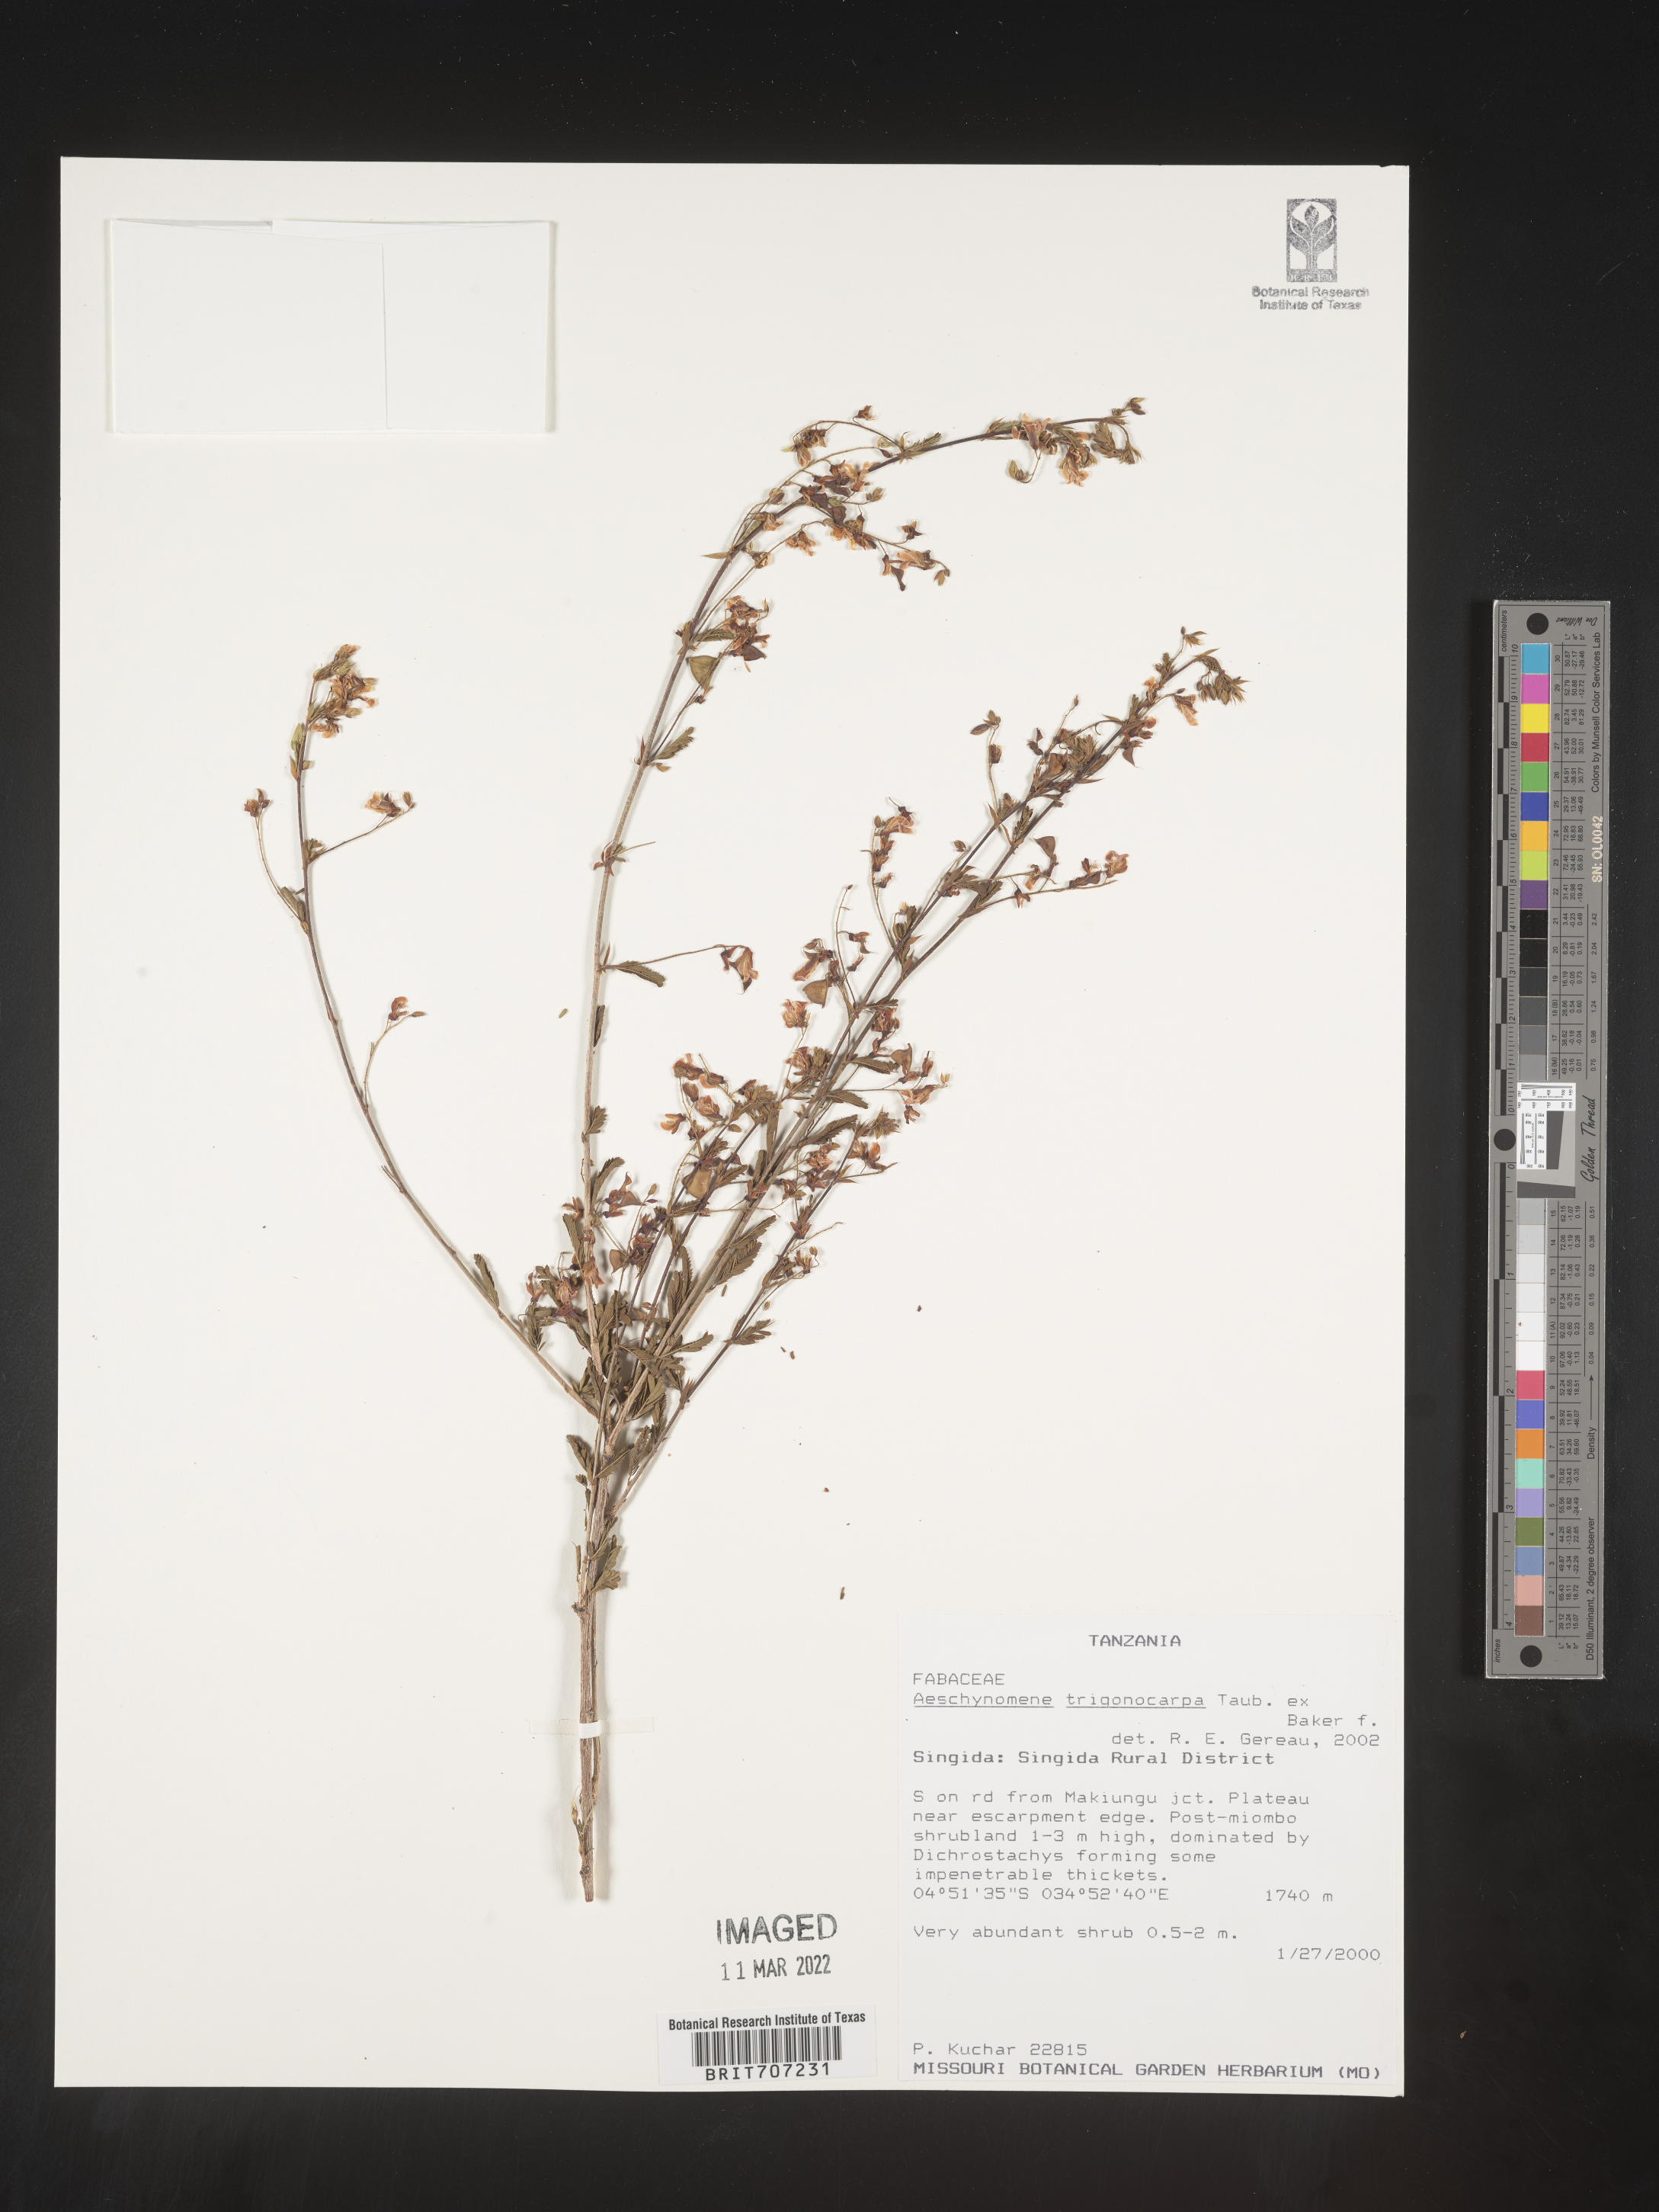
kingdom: Plantae
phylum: Tracheophyta
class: Magnoliopsida
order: Fabales
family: Fabaceae
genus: Aeschynomene
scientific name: Aeschynomene
